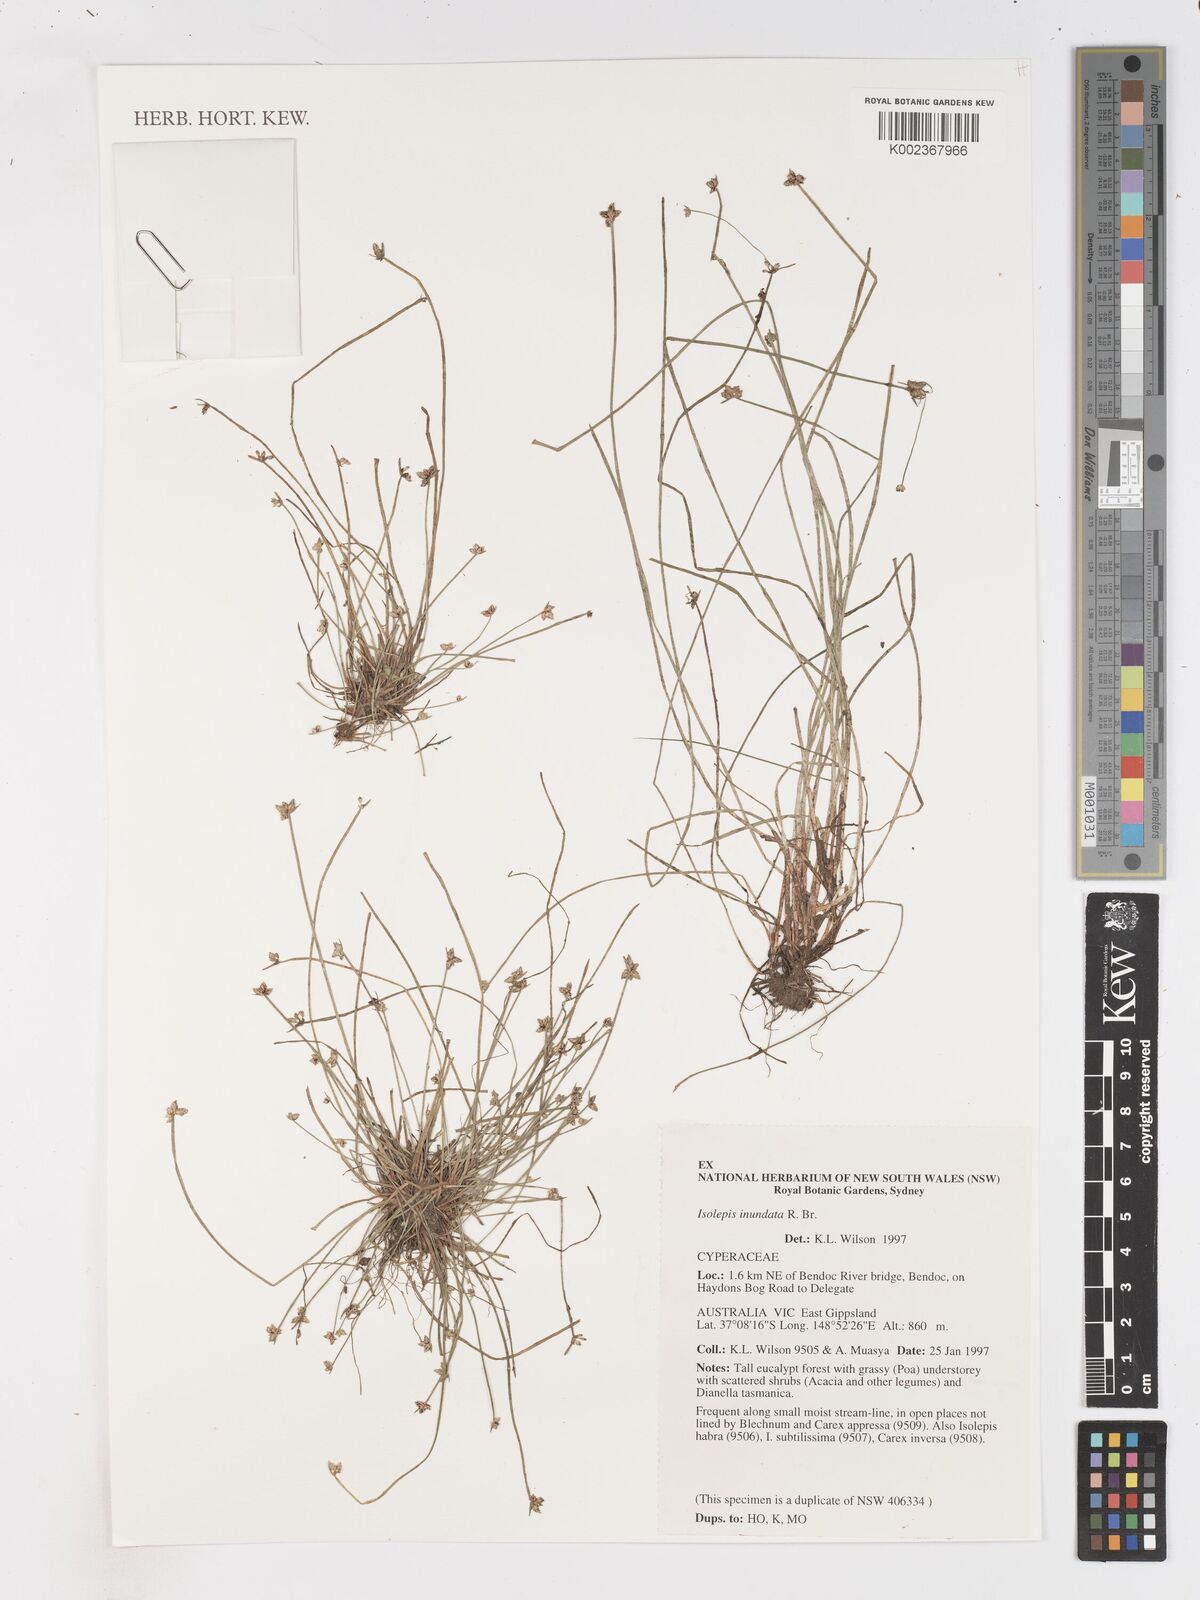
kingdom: Plantae
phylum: Tracheophyta
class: Liliopsida
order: Poales
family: Cyperaceae
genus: Isolepis
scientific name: Isolepis inundata
